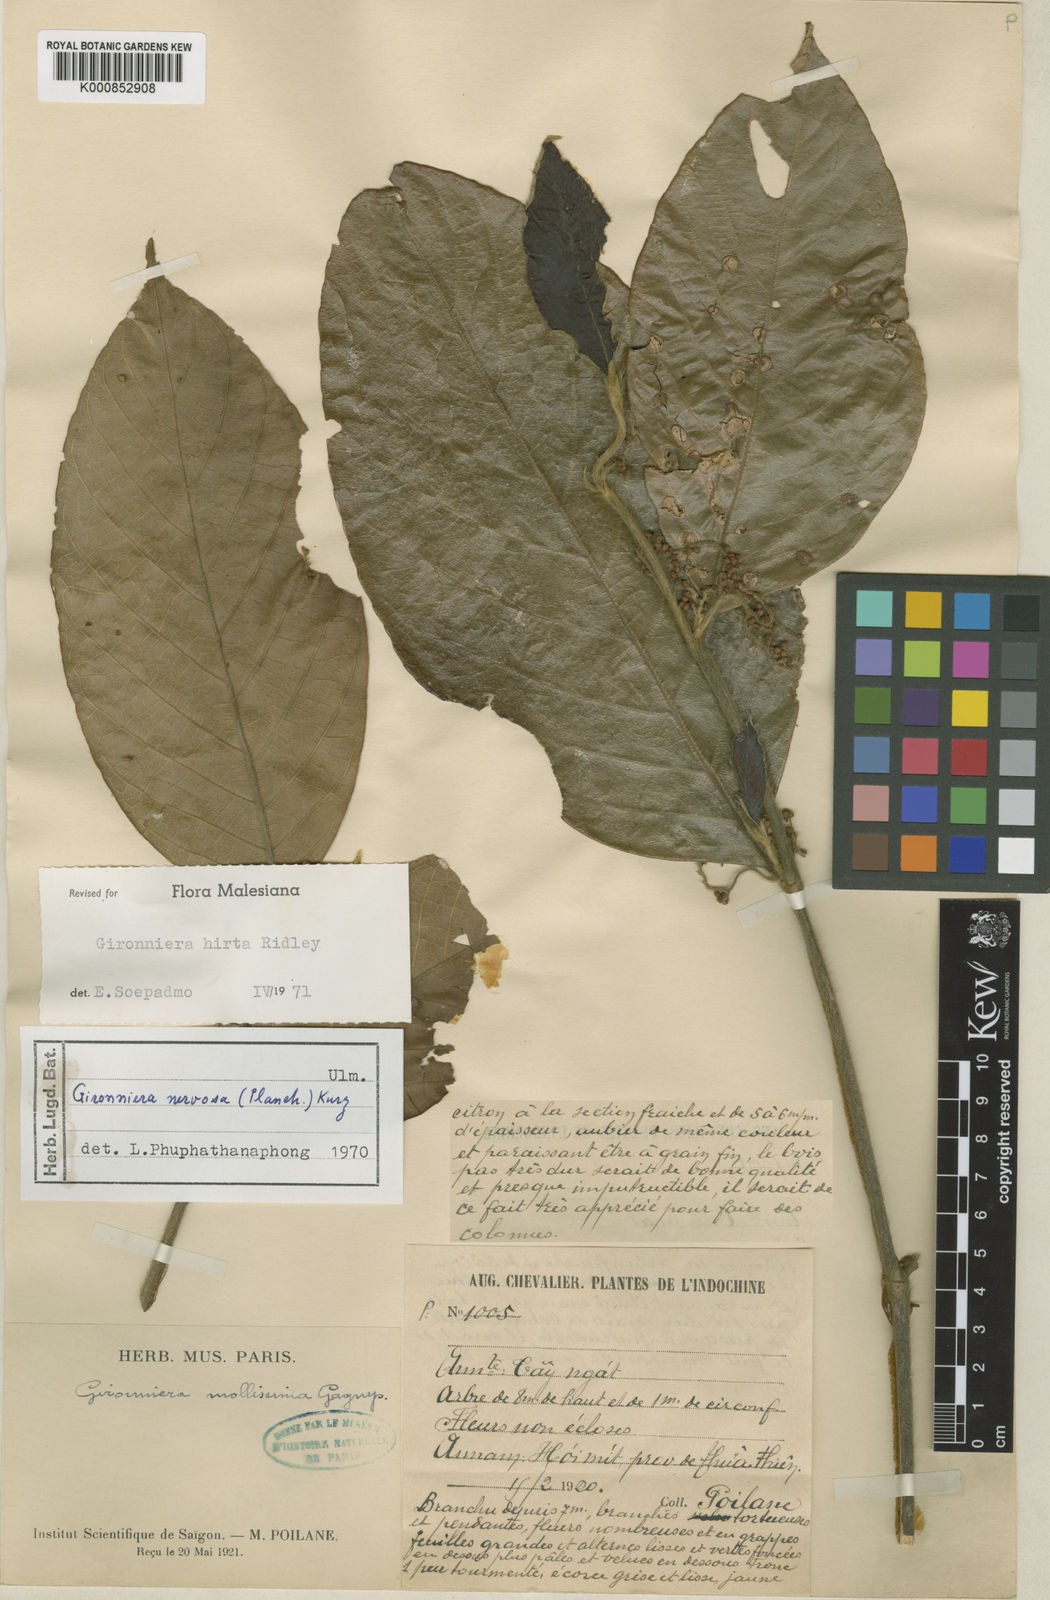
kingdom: Plantae
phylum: Tracheophyta
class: Magnoliopsida
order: Rosales
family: Cannabaceae
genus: Gironniera
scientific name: Gironniera hirta
